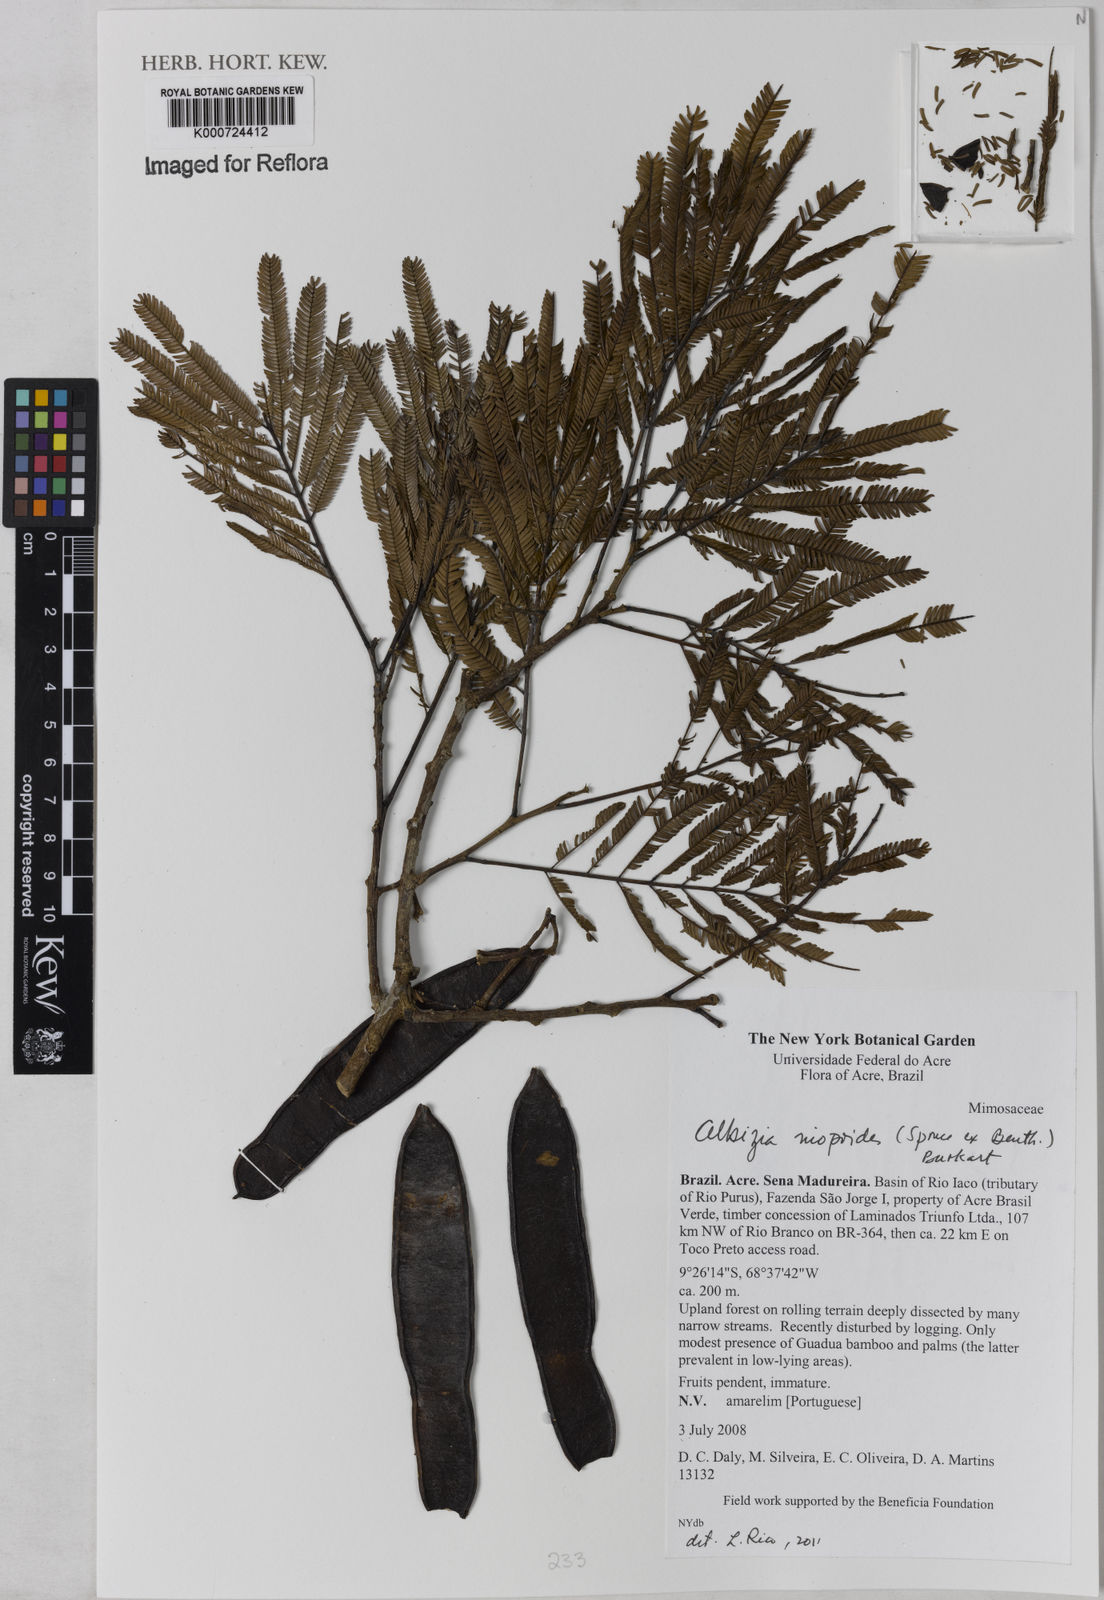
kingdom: Plantae
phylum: Tracheophyta
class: Magnoliopsida
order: Fabales
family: Fabaceae
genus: Albizia
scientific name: Albizia niopoides
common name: Silk tree
